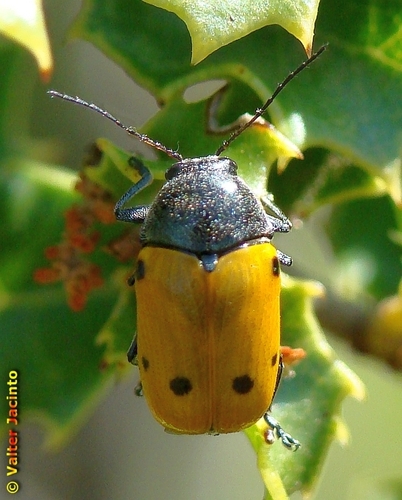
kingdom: Animalia
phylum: Arthropoda
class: Insecta
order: Coleoptera
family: Chrysomelidae
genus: Cryptocephalus
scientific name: Cryptocephalus tristigma
